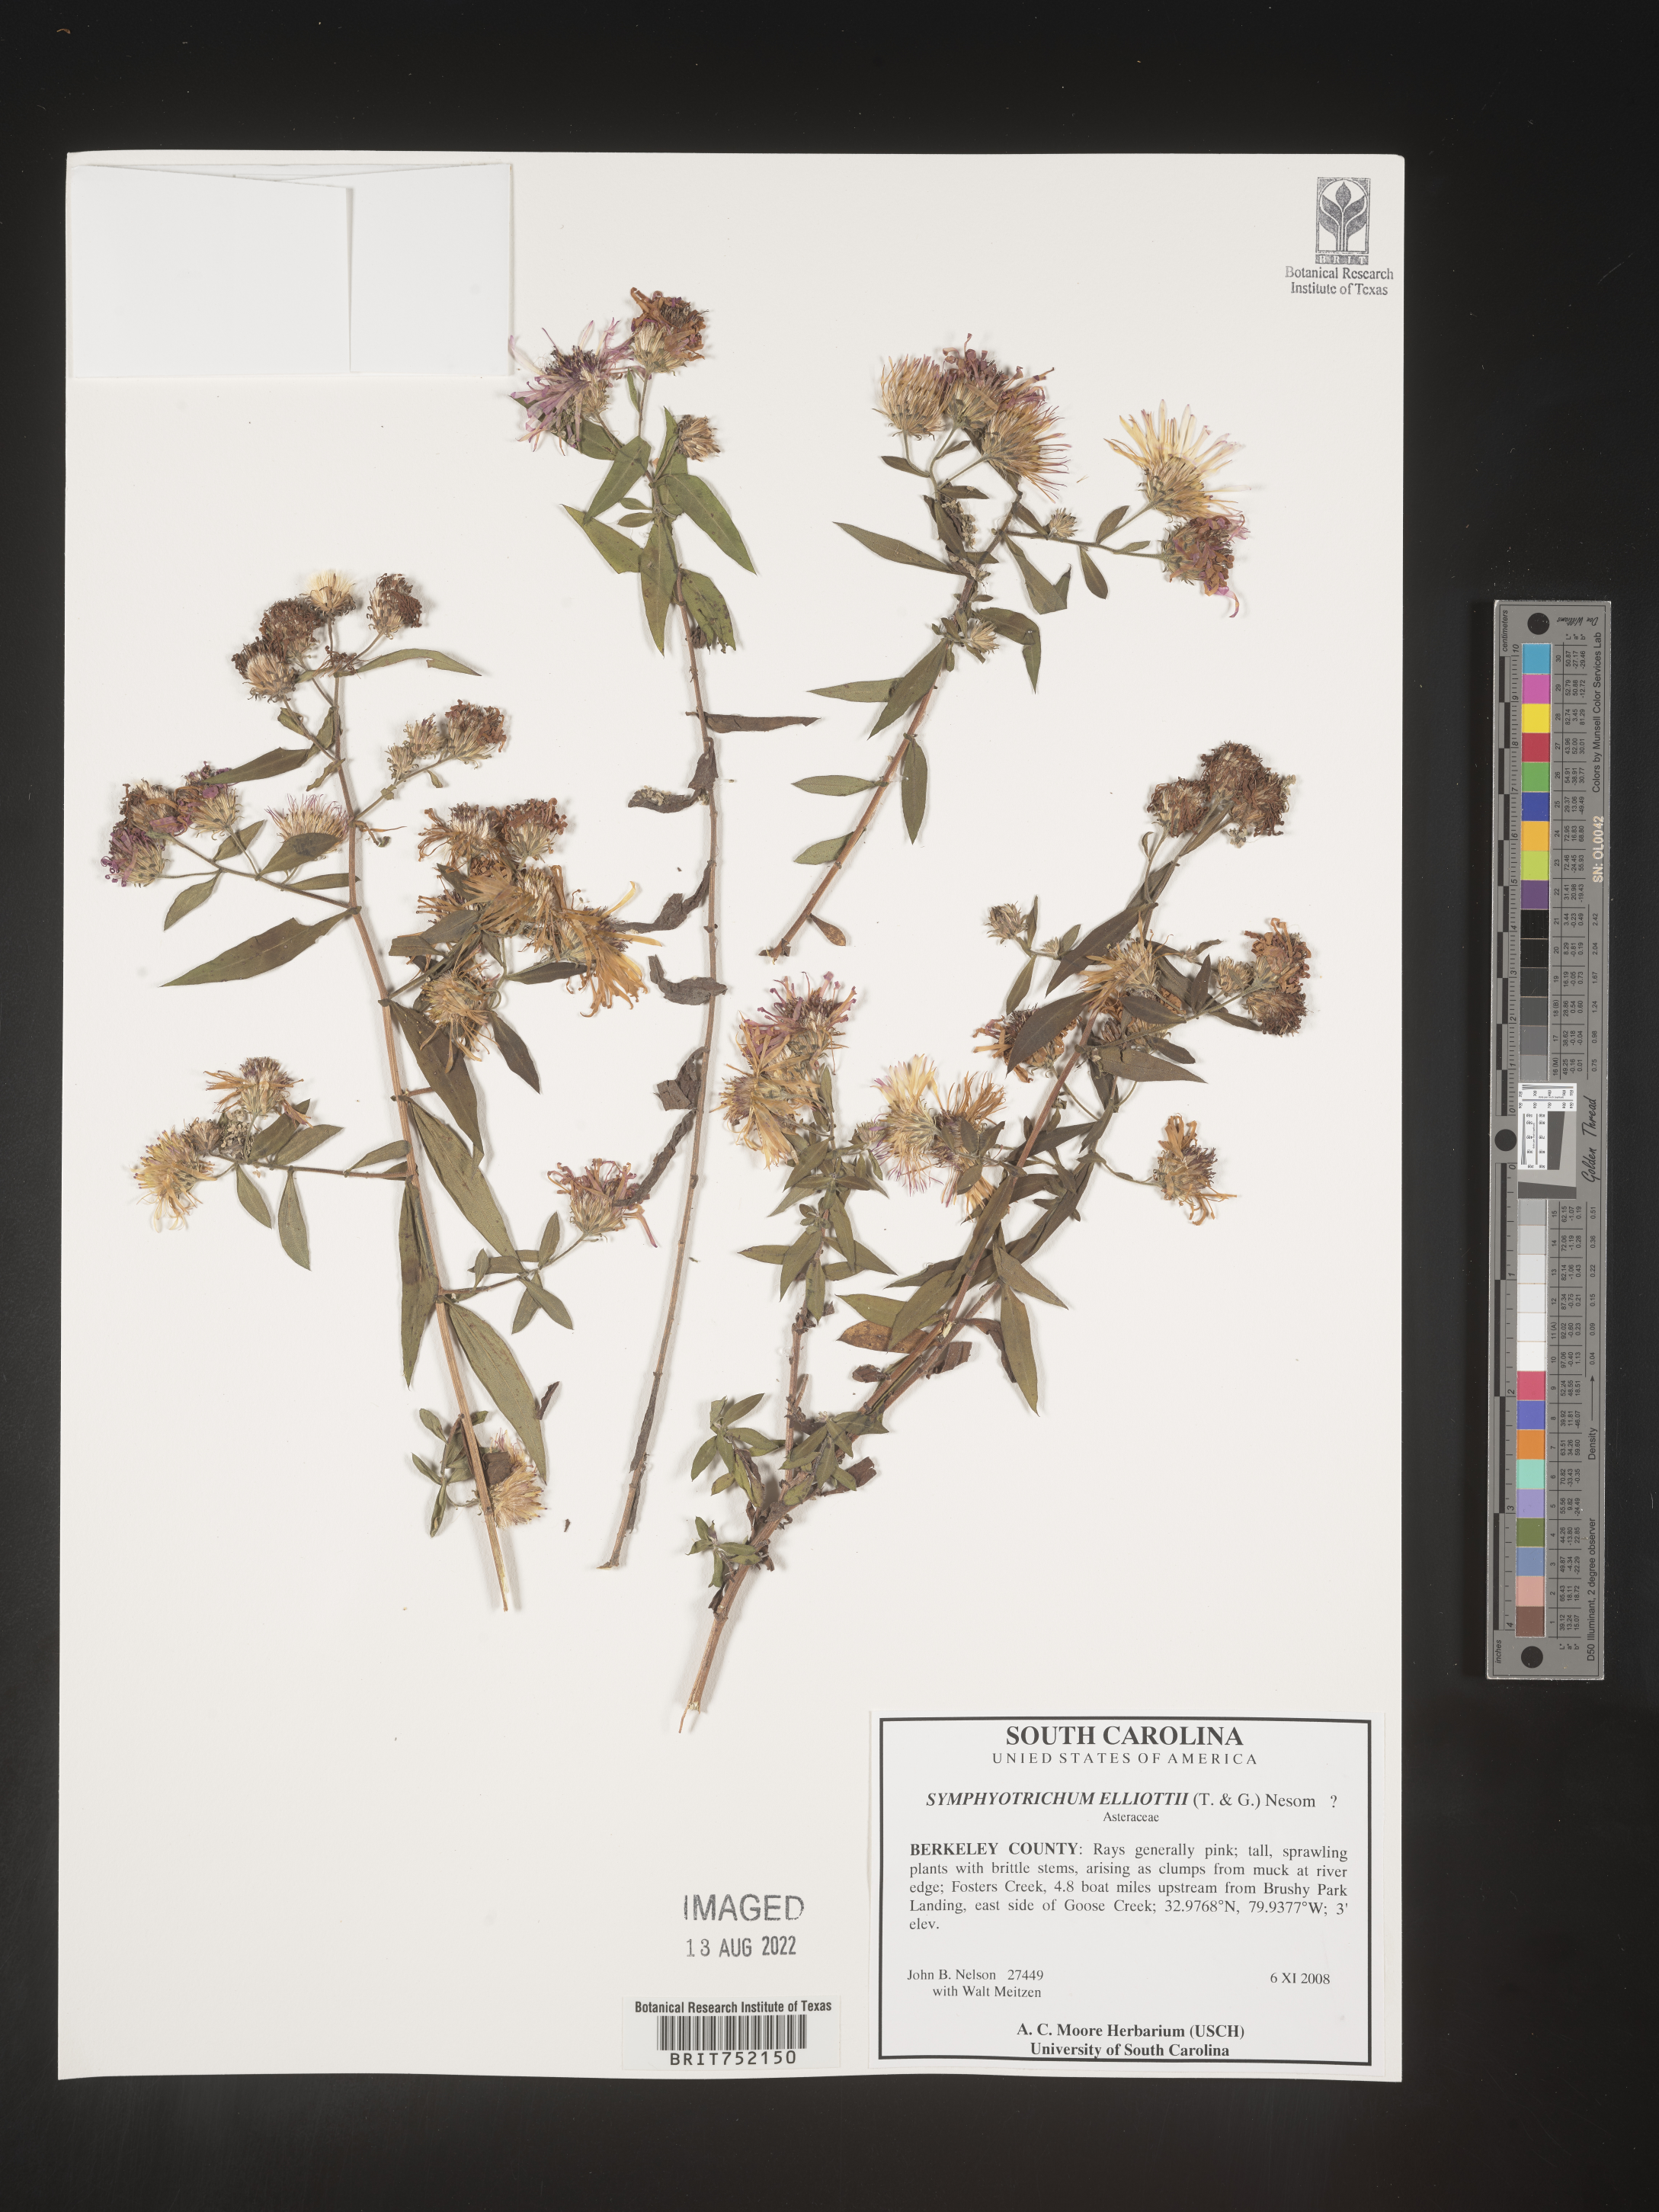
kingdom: Plantae
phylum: Tracheophyta
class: Magnoliopsida
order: Asterales
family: Asteraceae
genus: Symphyotrichum
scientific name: Symphyotrichum elliottii
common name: Southern swamp aster
